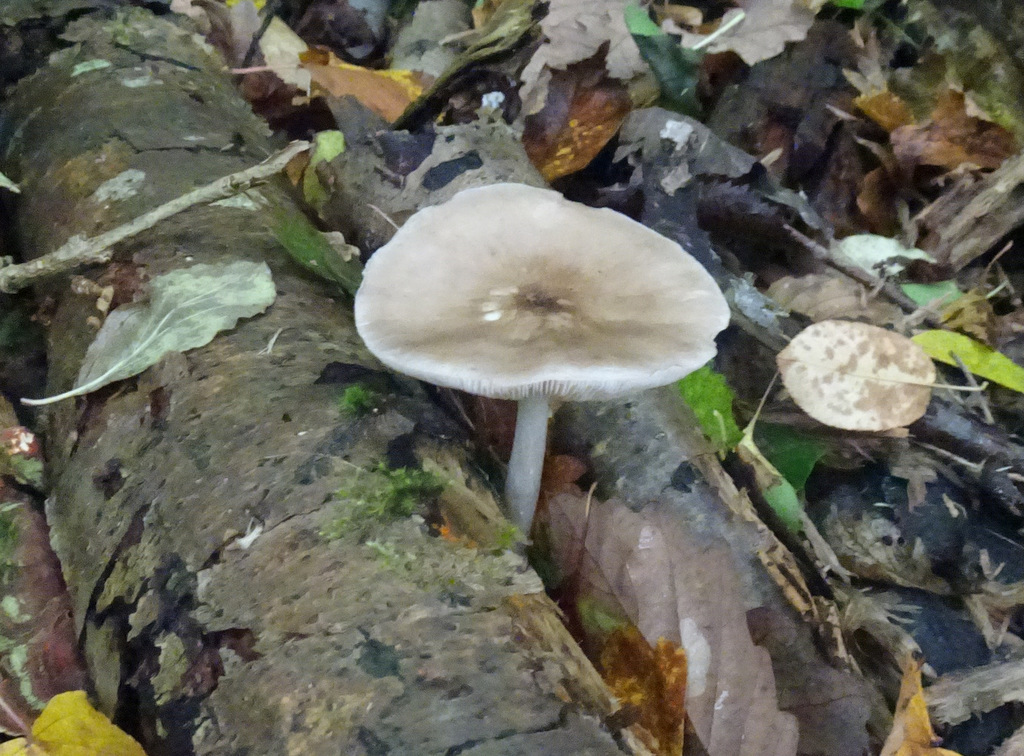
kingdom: Fungi
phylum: Basidiomycota
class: Agaricomycetes
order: Agaricales
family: Physalacriaceae
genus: Hymenopellis
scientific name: Hymenopellis radicata
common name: almindelig pælerodshat
